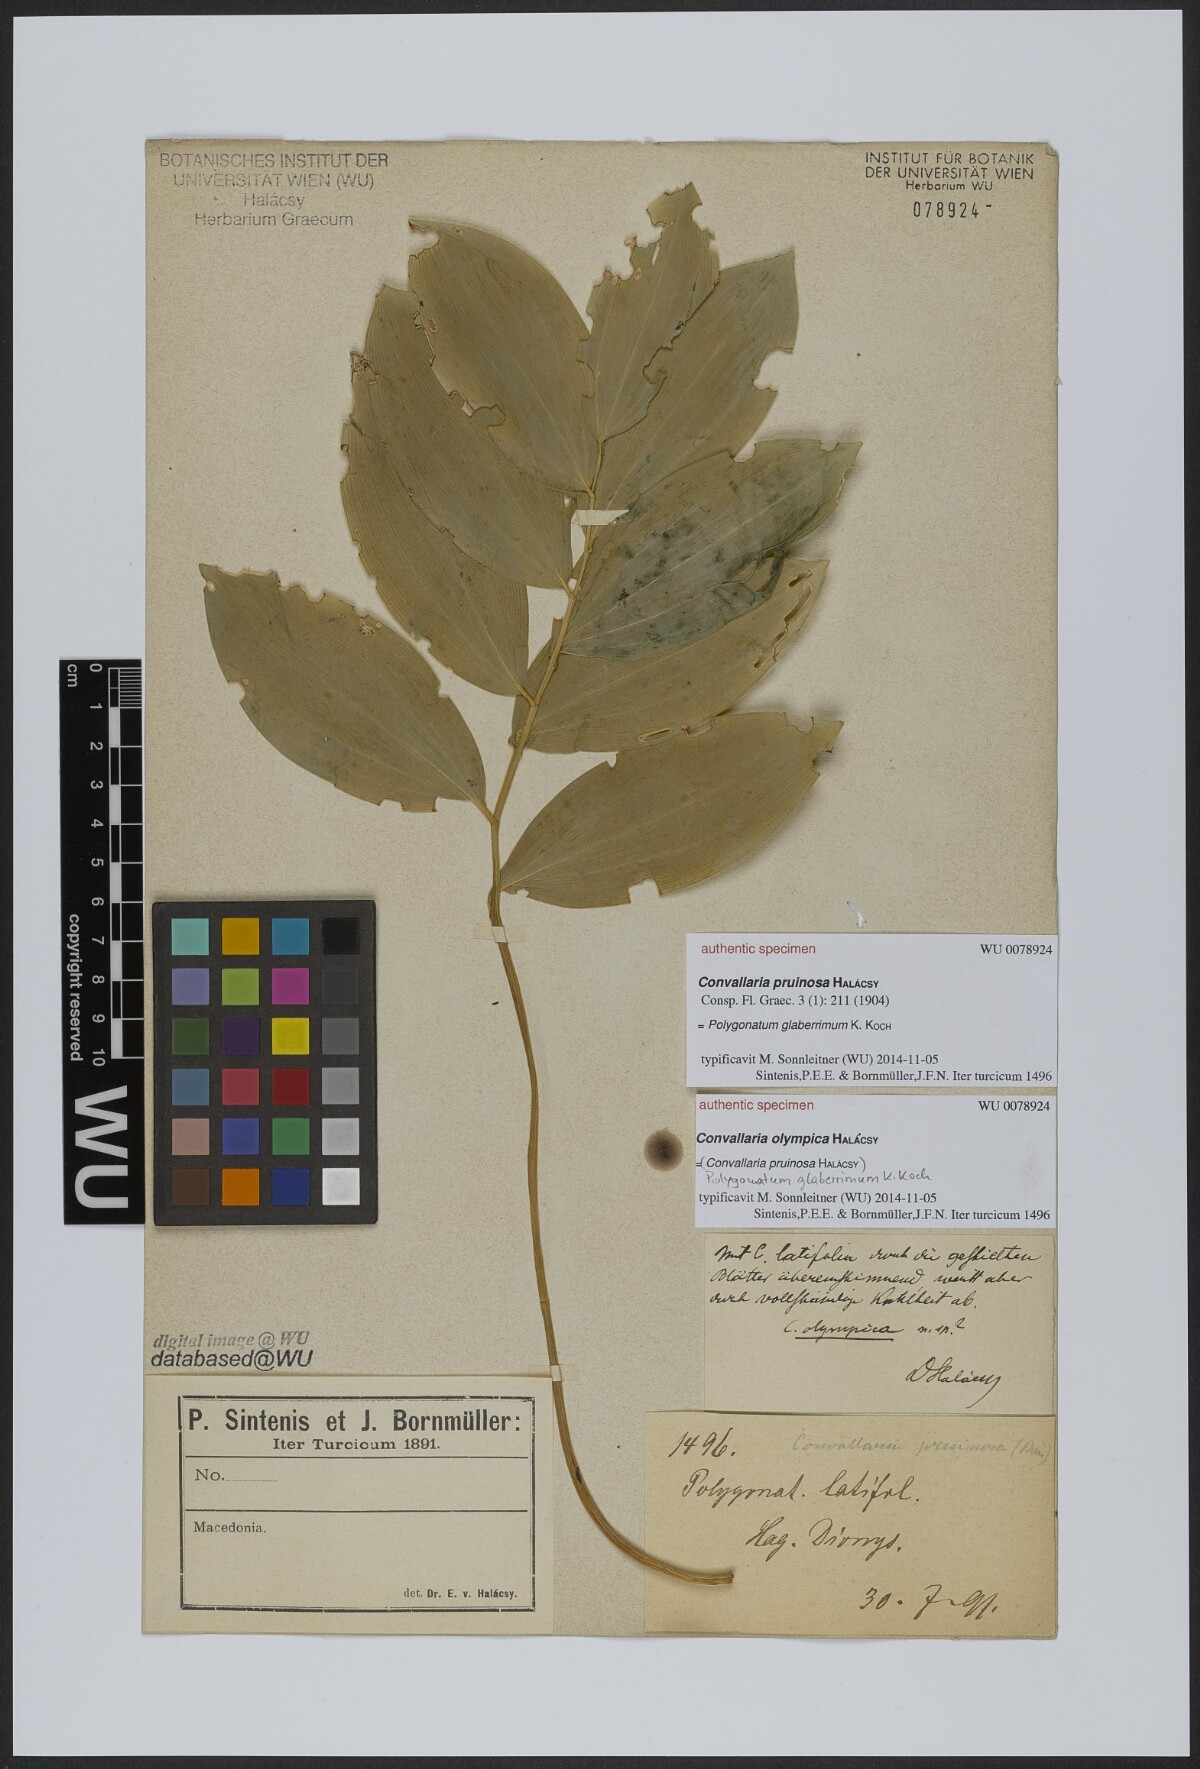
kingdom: Plantae
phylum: Tracheophyta
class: Liliopsida
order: Asparagales
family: Asparagaceae
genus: Convallaria
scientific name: Convallaria
